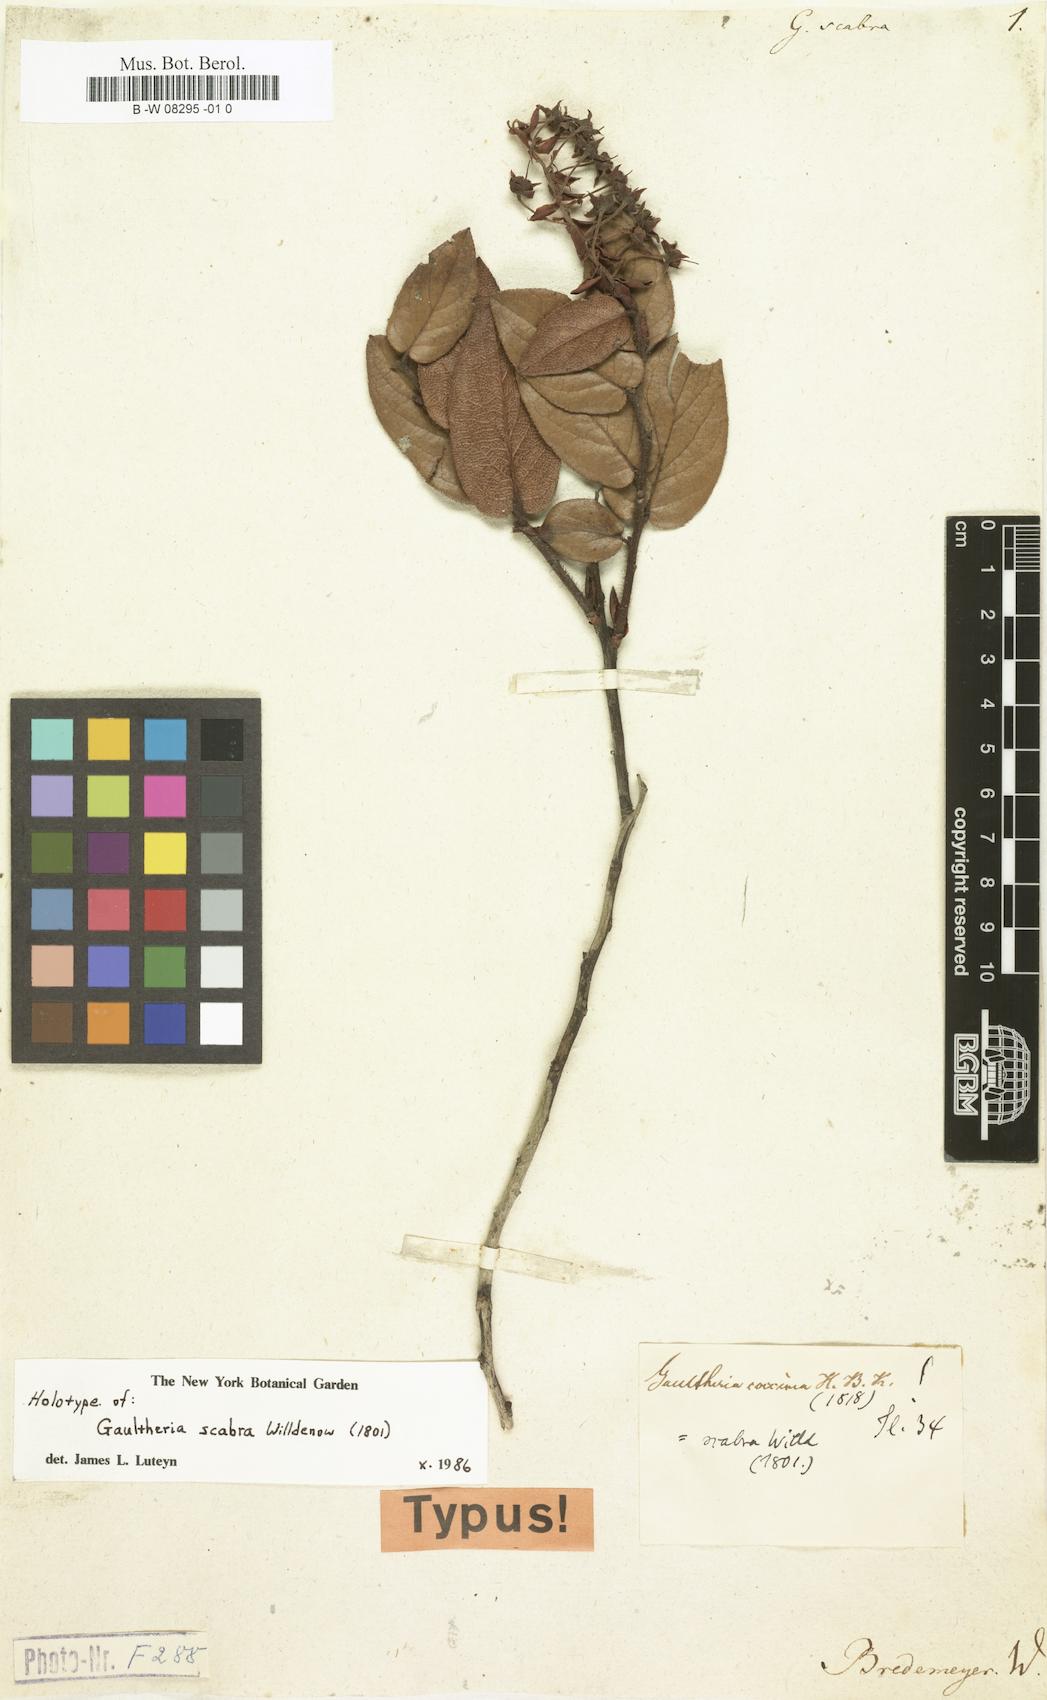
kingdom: Plantae
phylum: Tracheophyta
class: Magnoliopsida
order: Ericales
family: Ericaceae
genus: Gaultheria
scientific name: Gaultheria erecta
